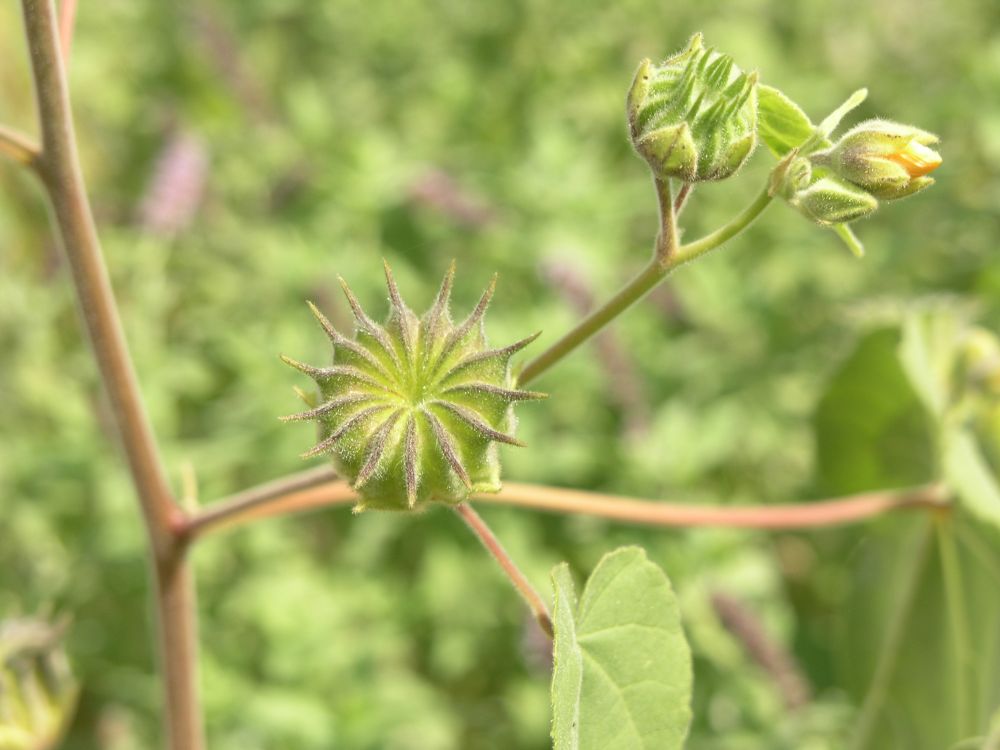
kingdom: Plantae
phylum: Tracheophyta
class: Magnoliopsida
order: Malvales
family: Malvaceae
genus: Abutilon
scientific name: Abutilon theophrasti
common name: Velvetleaf
